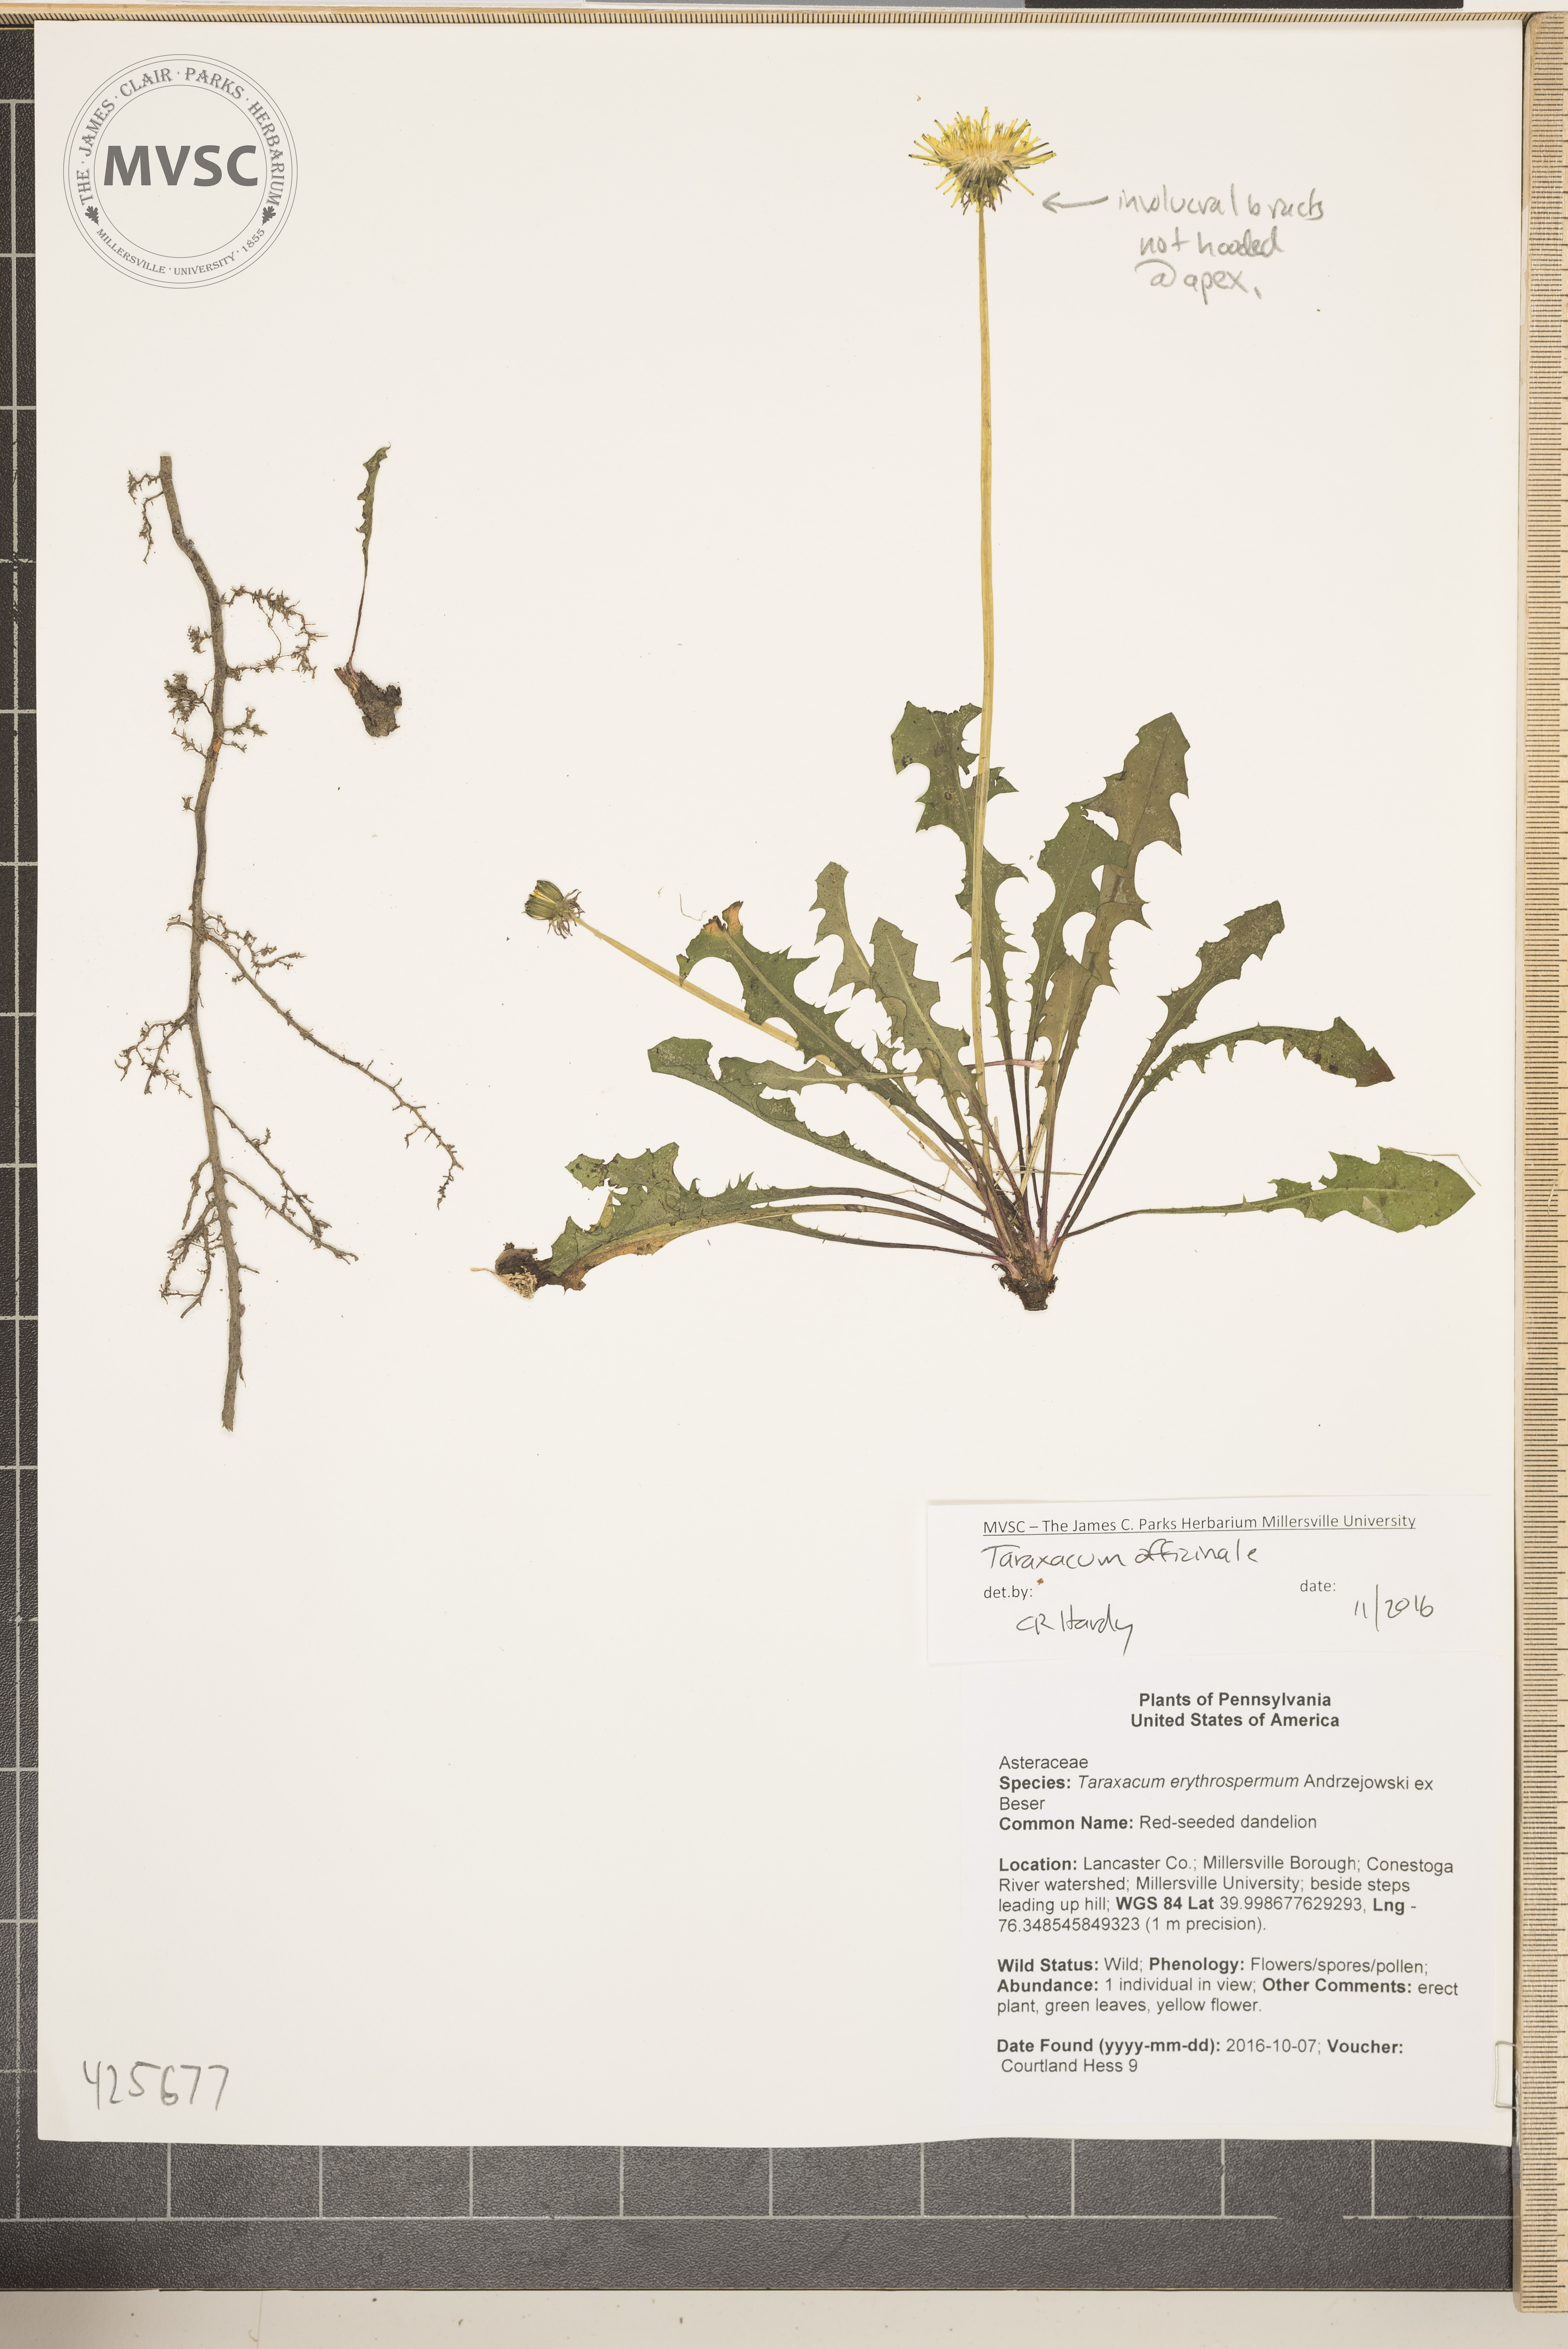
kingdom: Plantae
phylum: Tracheophyta
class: Magnoliopsida
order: Asterales
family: Asteraceae
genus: Taraxacum
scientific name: Taraxacum officinale
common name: Red-seeded dandelion
